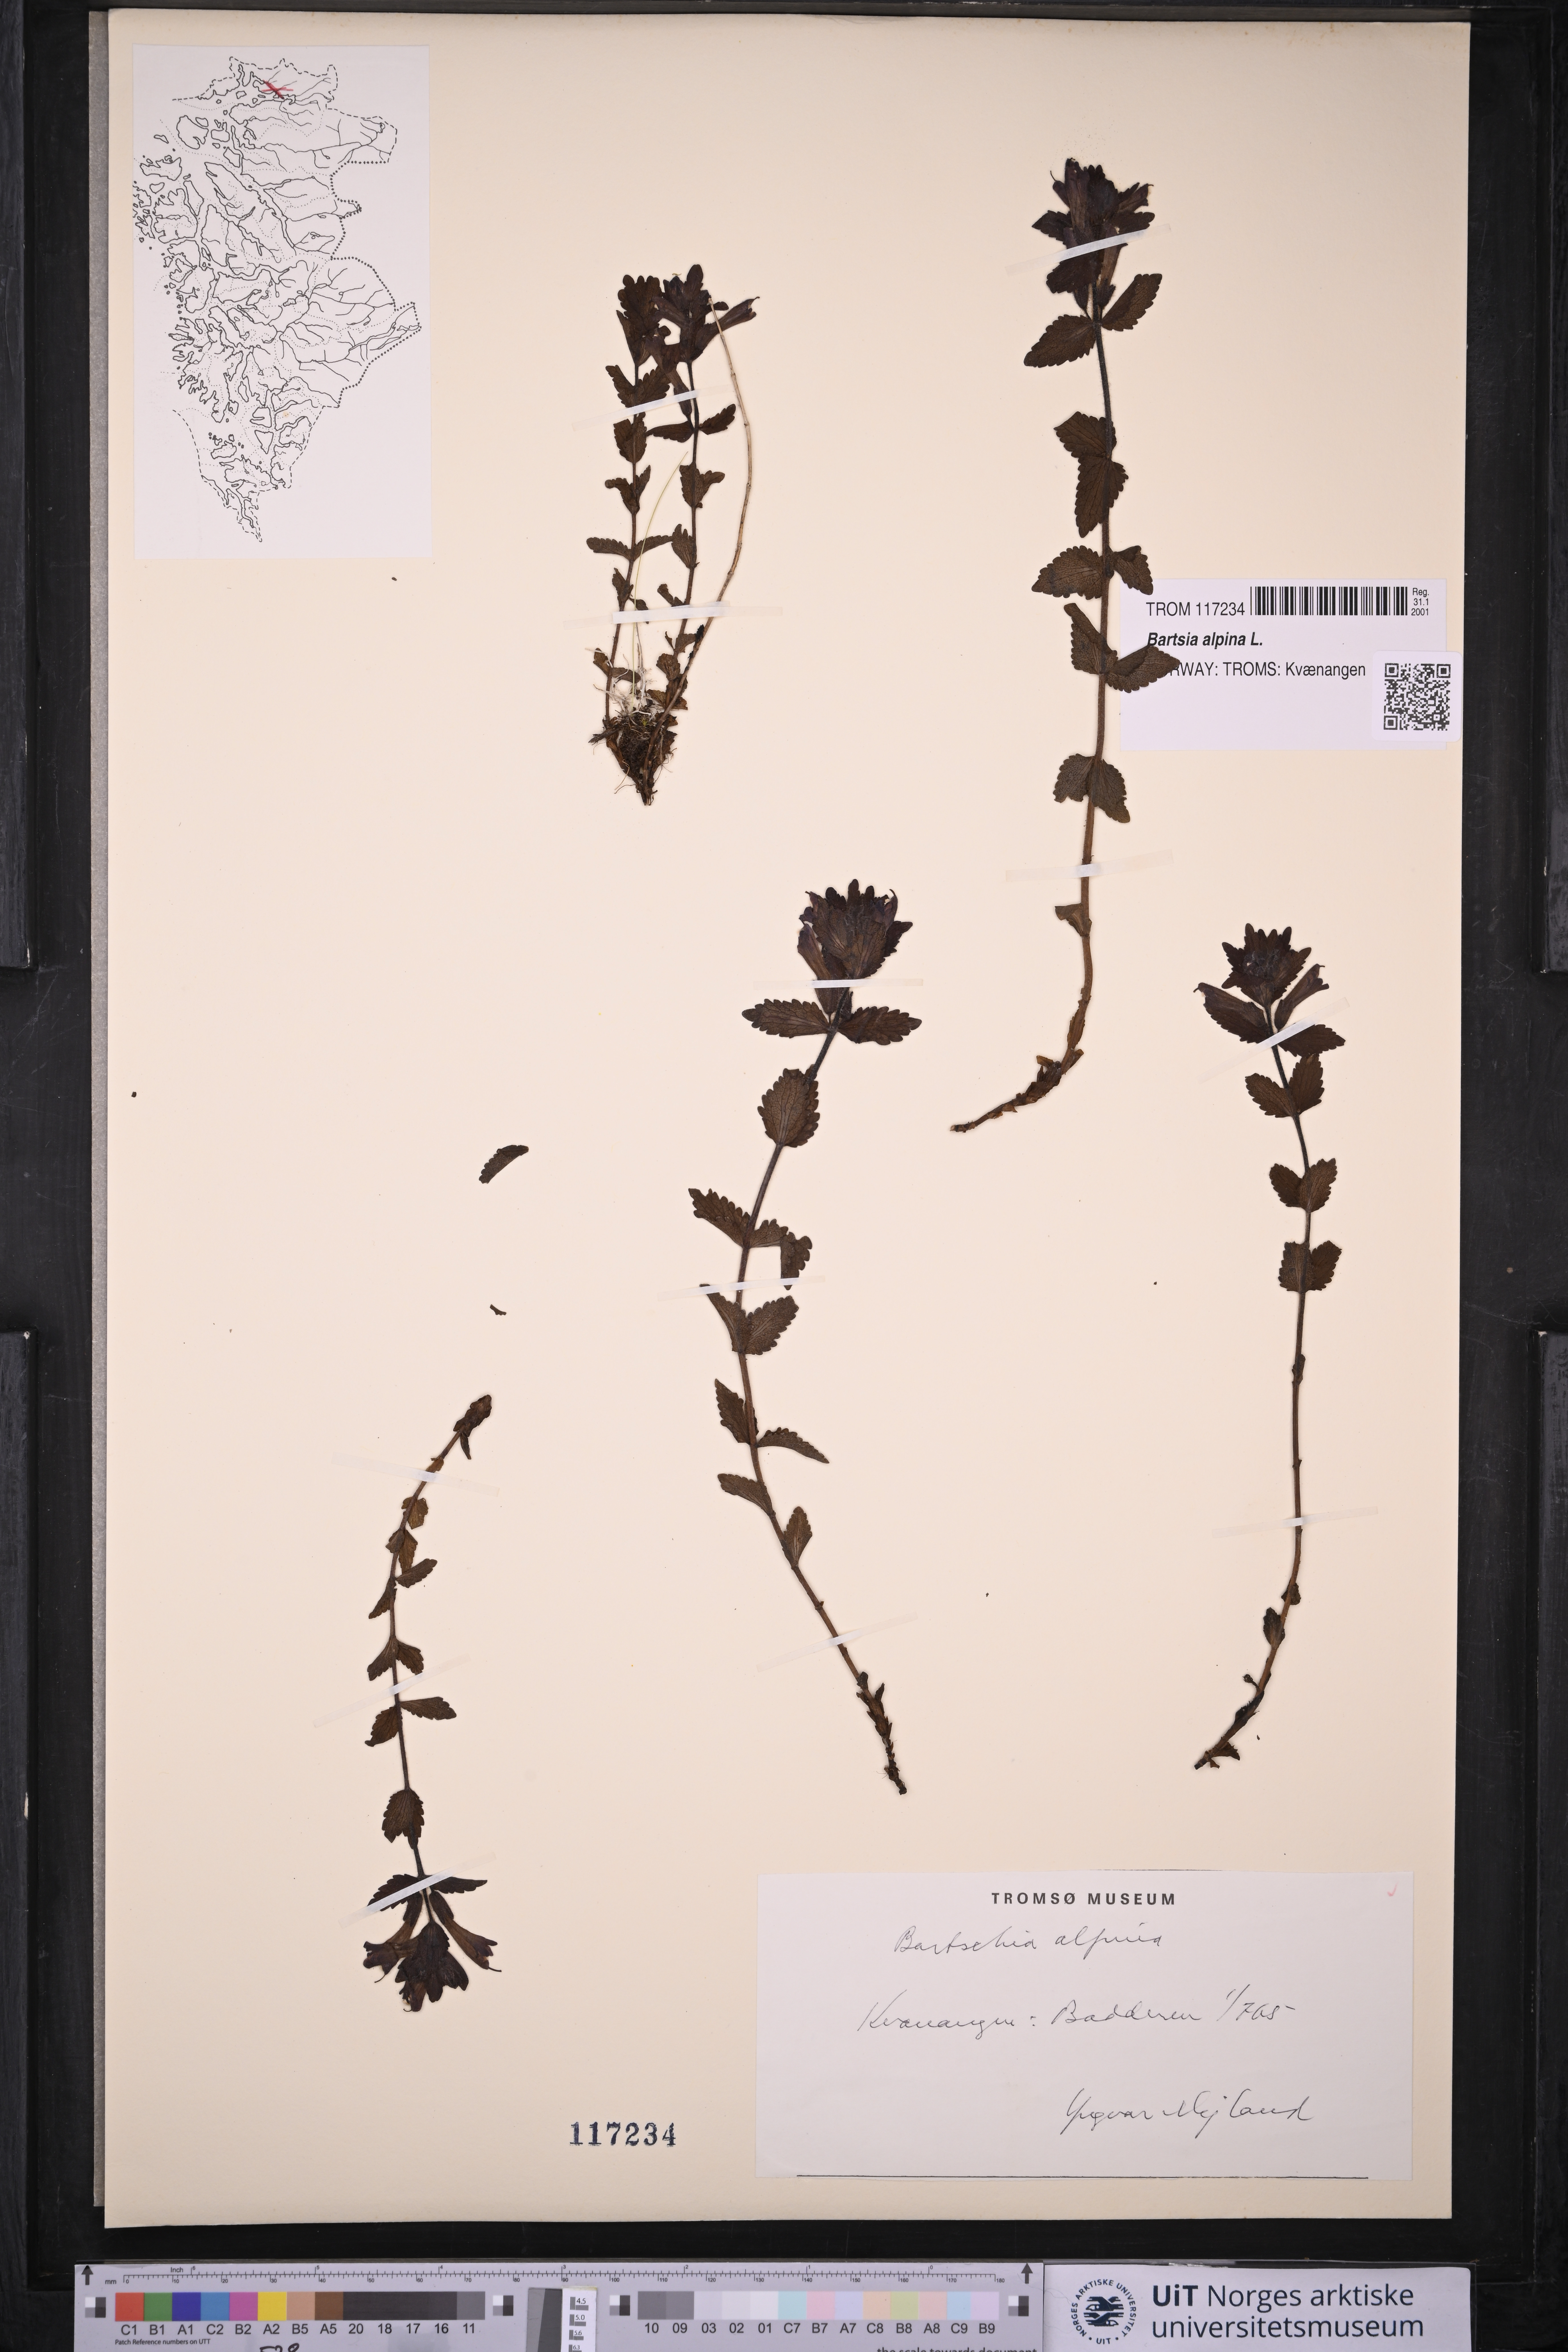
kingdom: Plantae
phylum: Tracheophyta
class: Magnoliopsida
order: Lamiales
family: Orobanchaceae
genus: Bartsia
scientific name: Bartsia alpina
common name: Alpine bartsia
